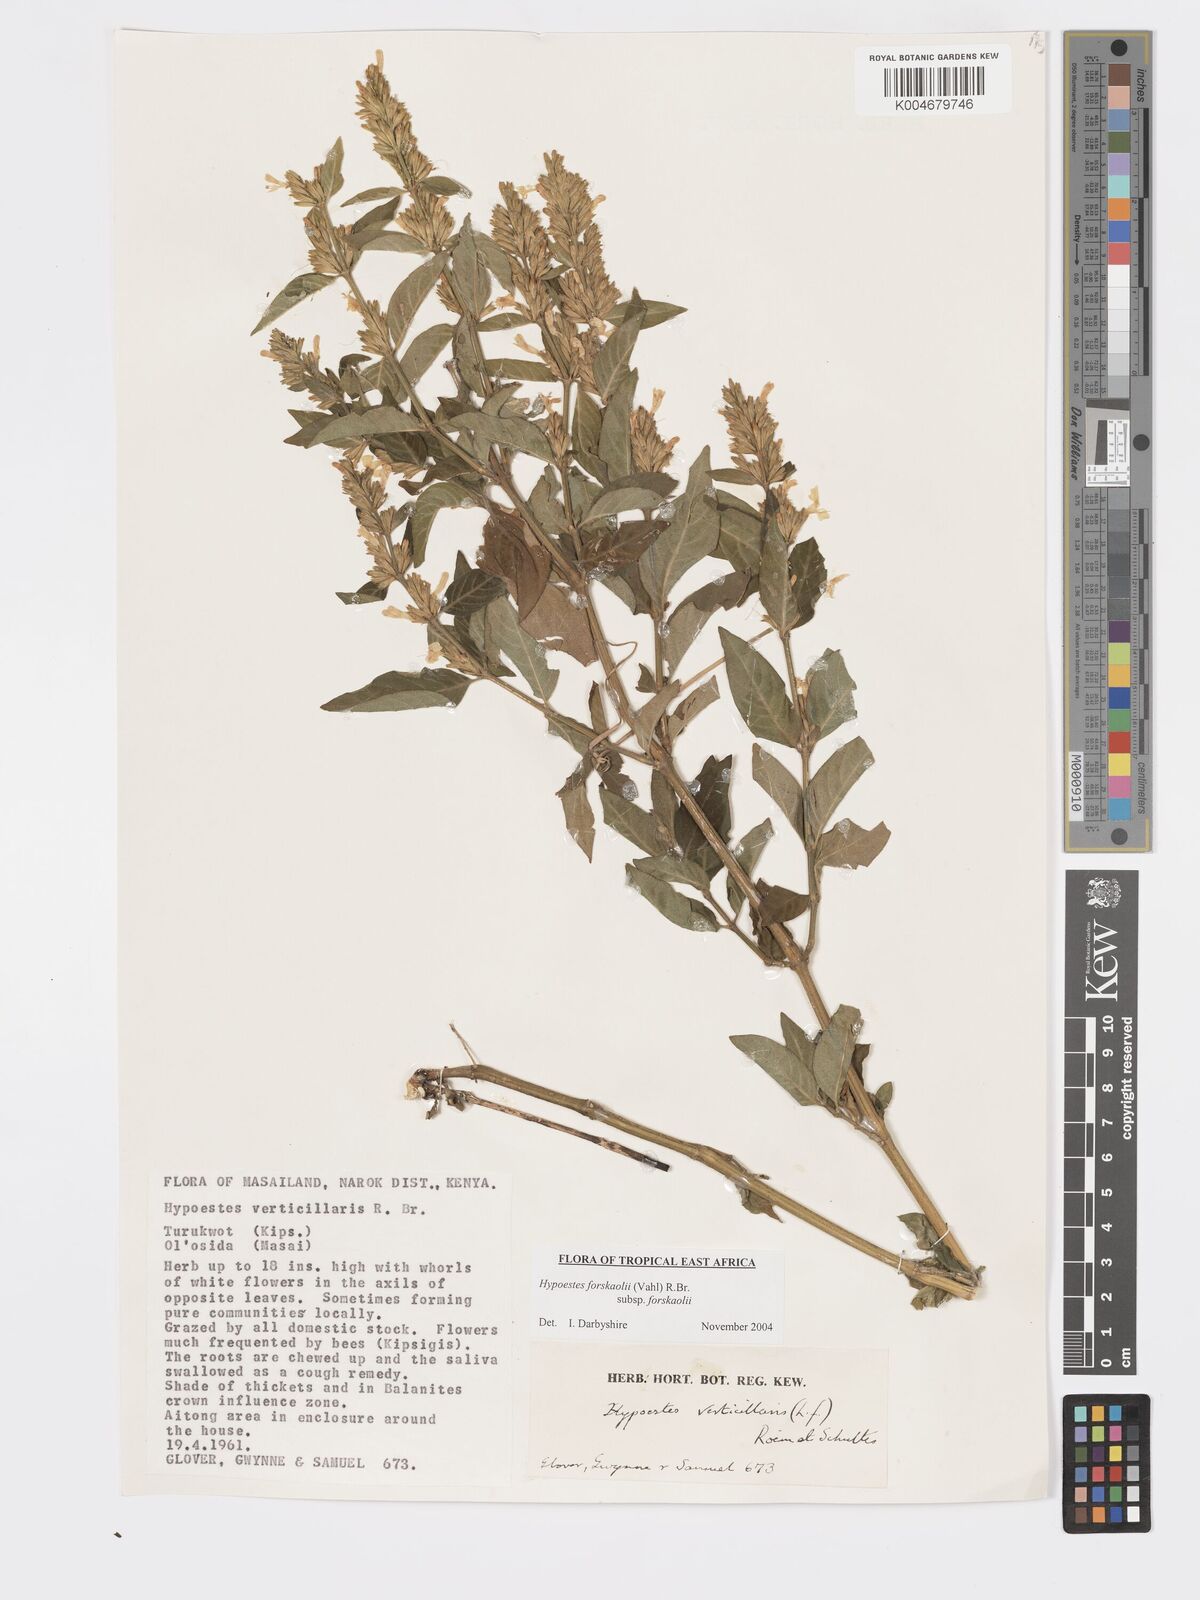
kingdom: Plantae
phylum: Tracheophyta
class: Magnoliopsida
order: Lamiales
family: Acanthaceae
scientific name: Acanthaceae
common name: Acanthaceae
